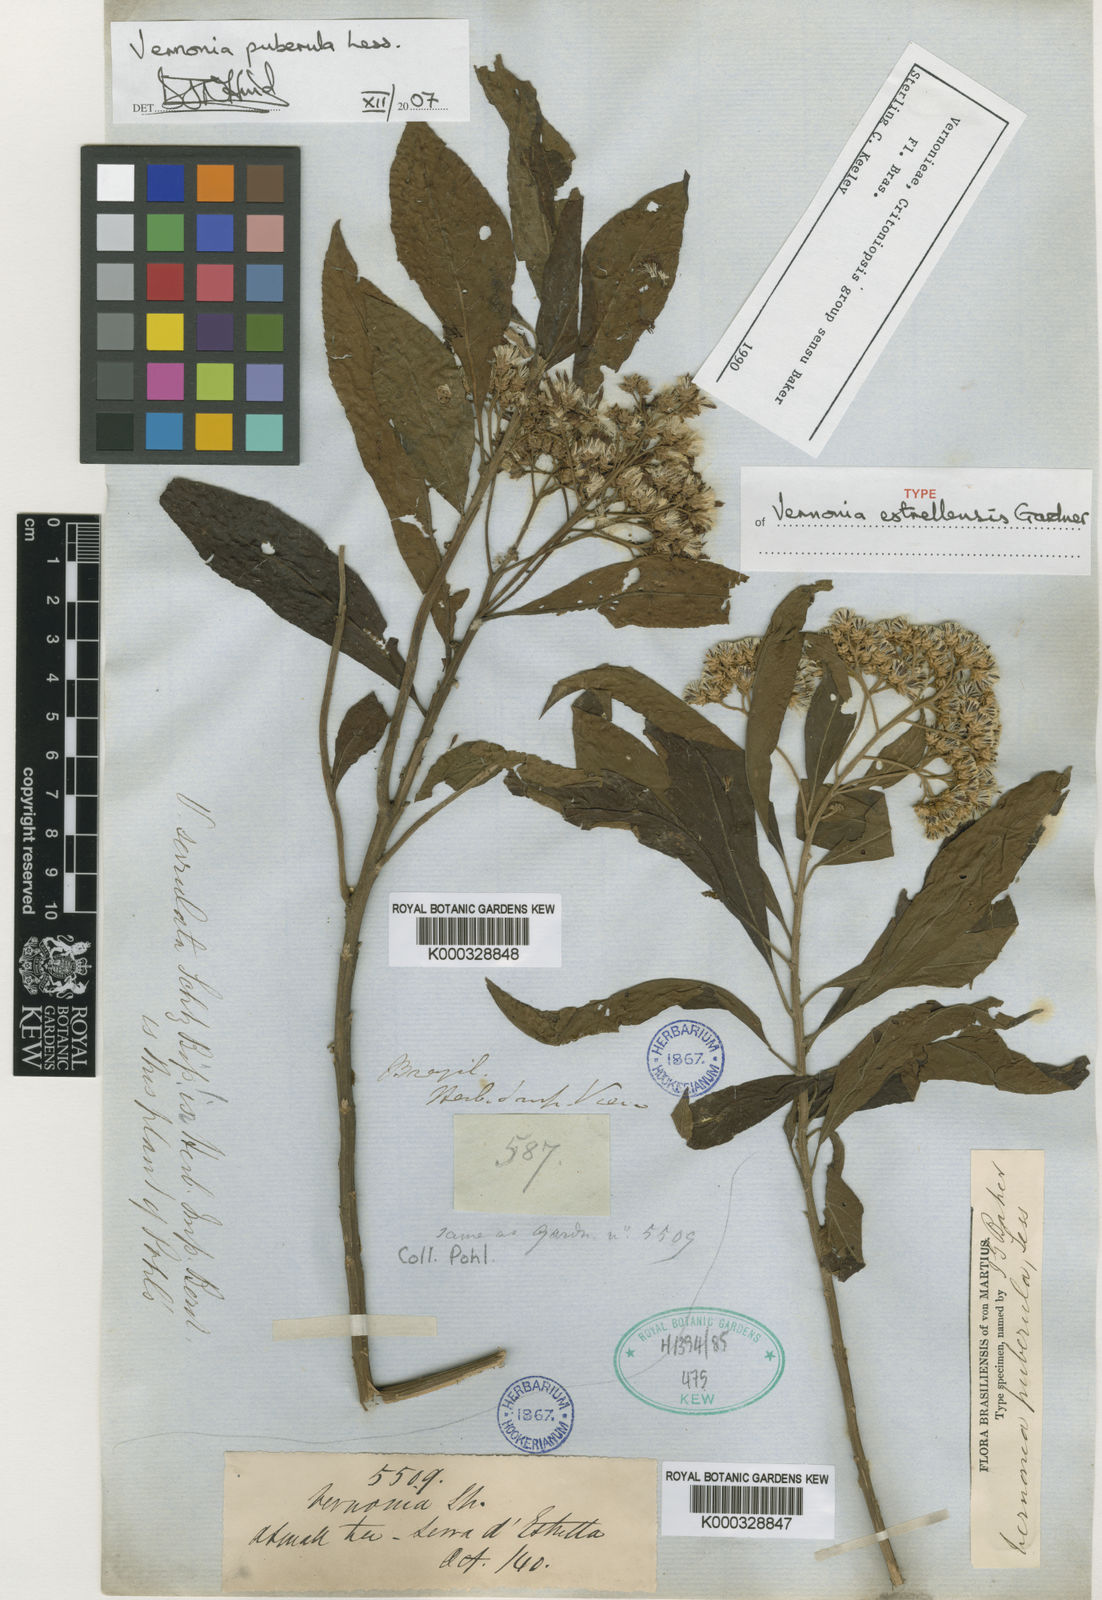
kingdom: Plantae
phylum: Tracheophyta
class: Magnoliopsida
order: Asterales
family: Asteraceae
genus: Vernonanthura
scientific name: Vernonanthura puberula
